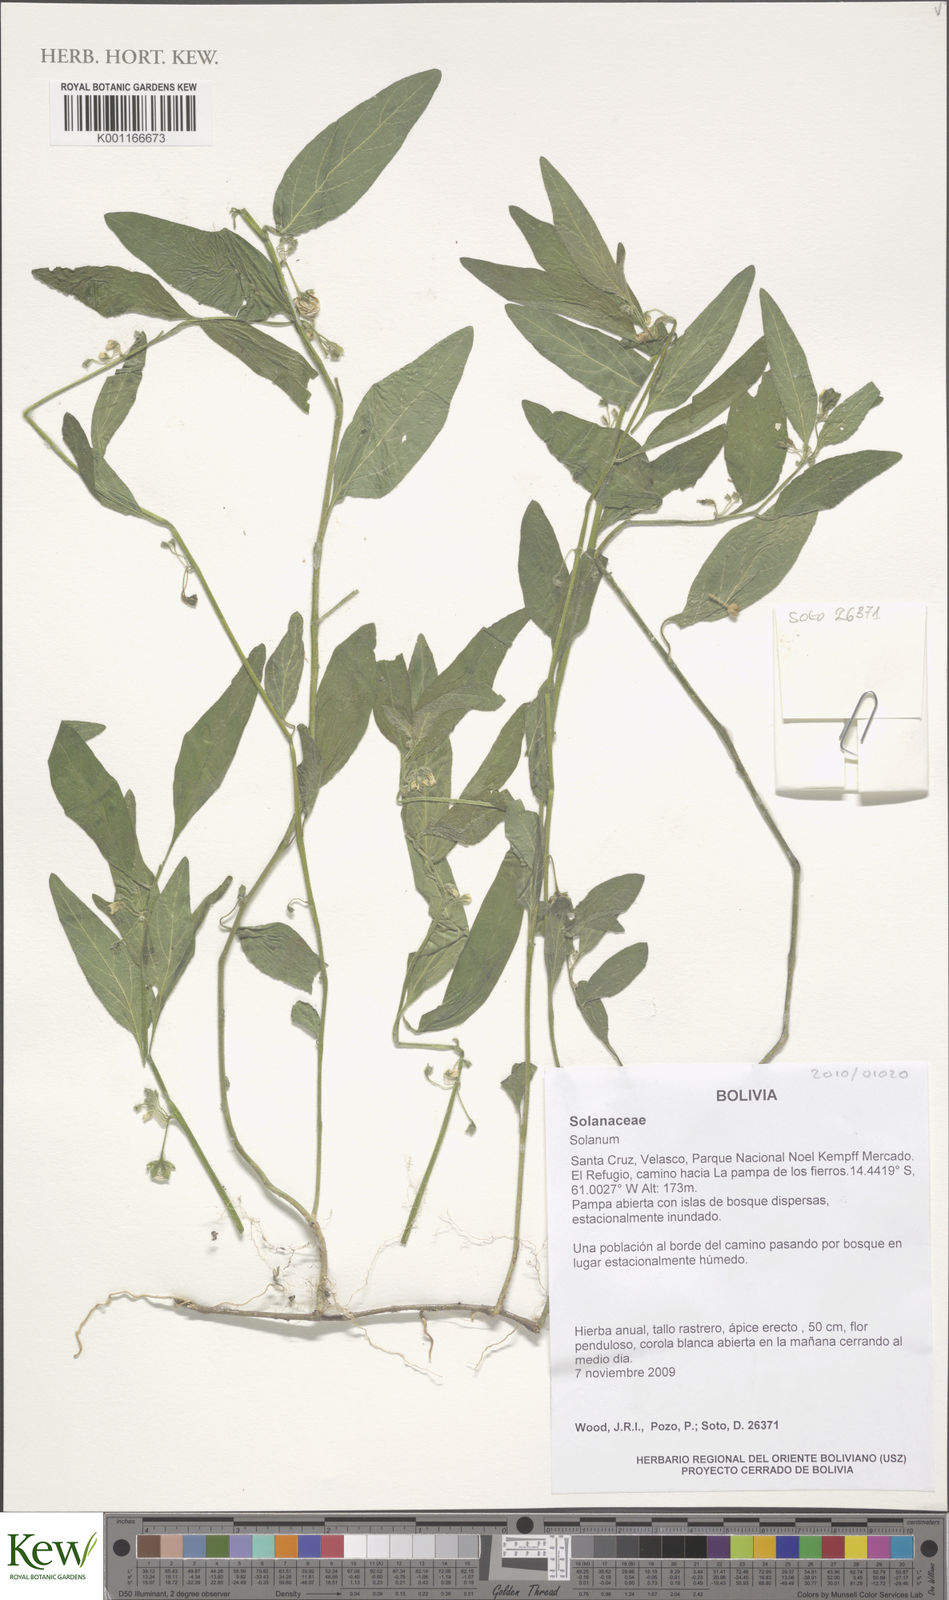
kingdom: Plantae
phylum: Tracheophyta
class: Magnoliopsida
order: Solanales
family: Solanaceae
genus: Solanum
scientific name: Solanum
